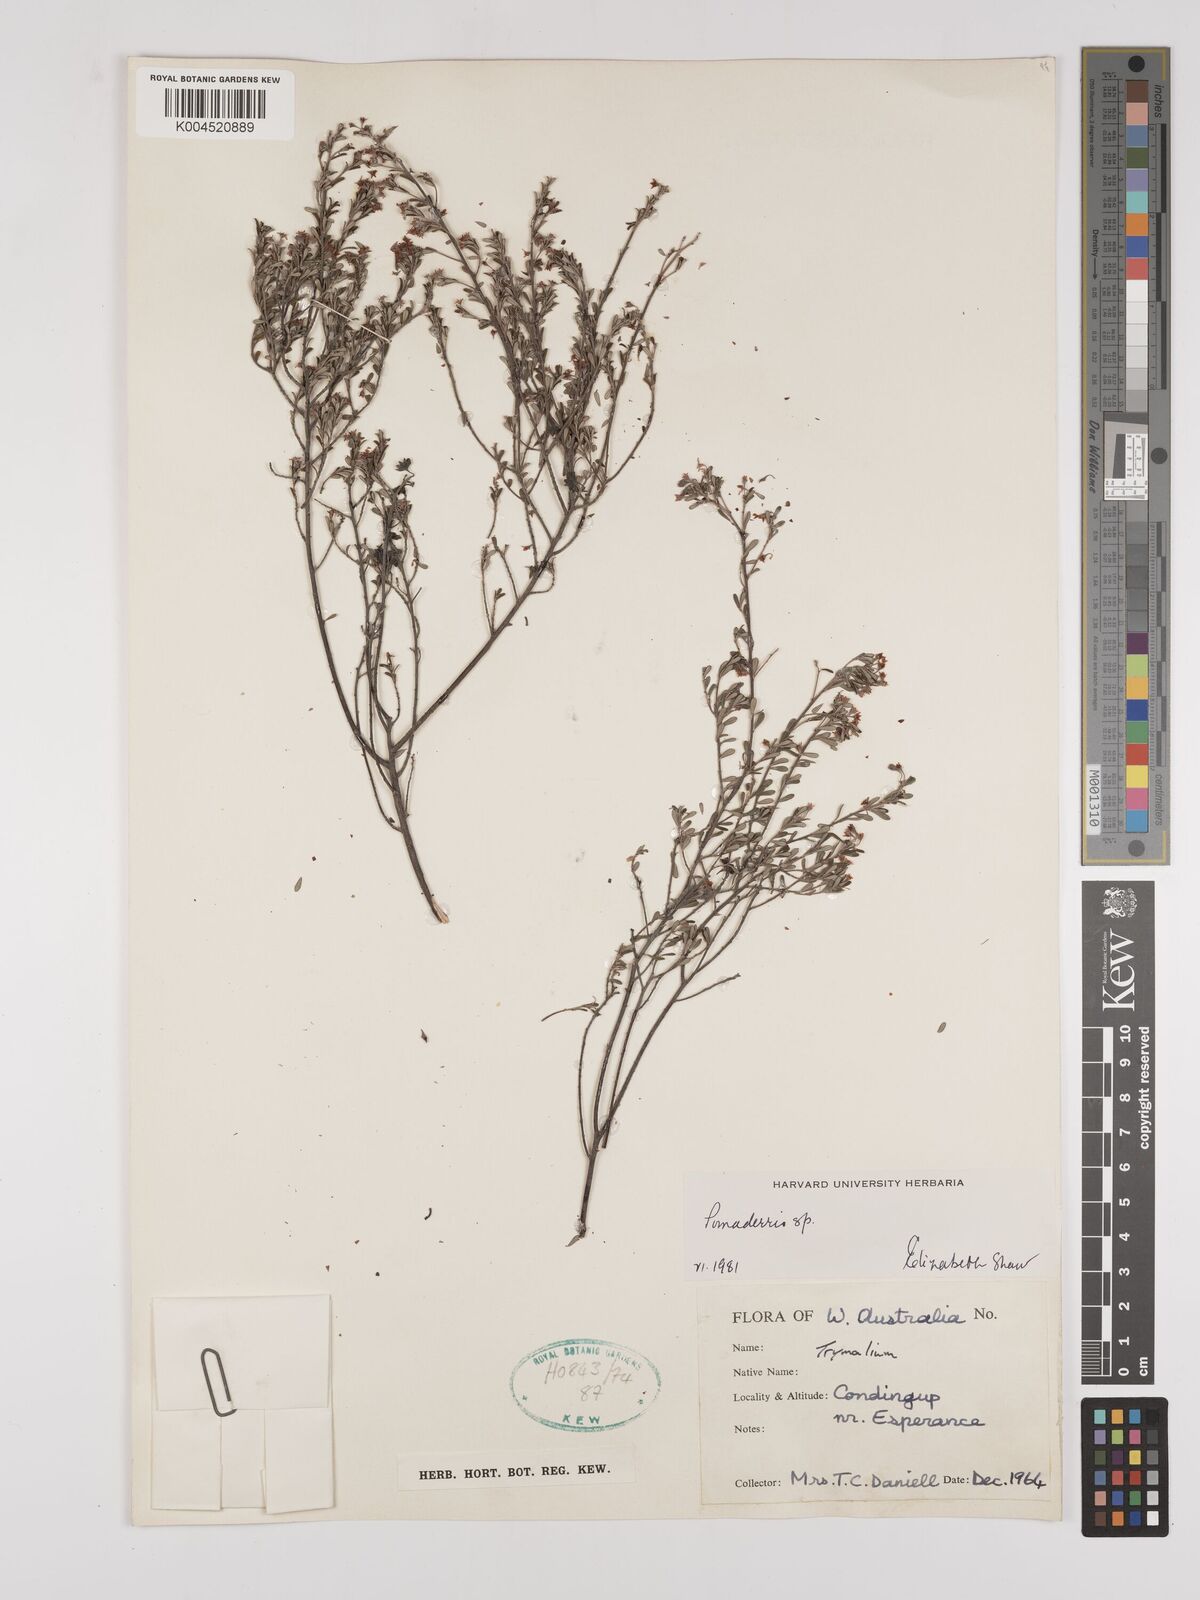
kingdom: Plantae
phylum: Tracheophyta
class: Magnoliopsida
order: Rosales
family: Rhamnaceae
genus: Pomaderris
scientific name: Pomaderris
